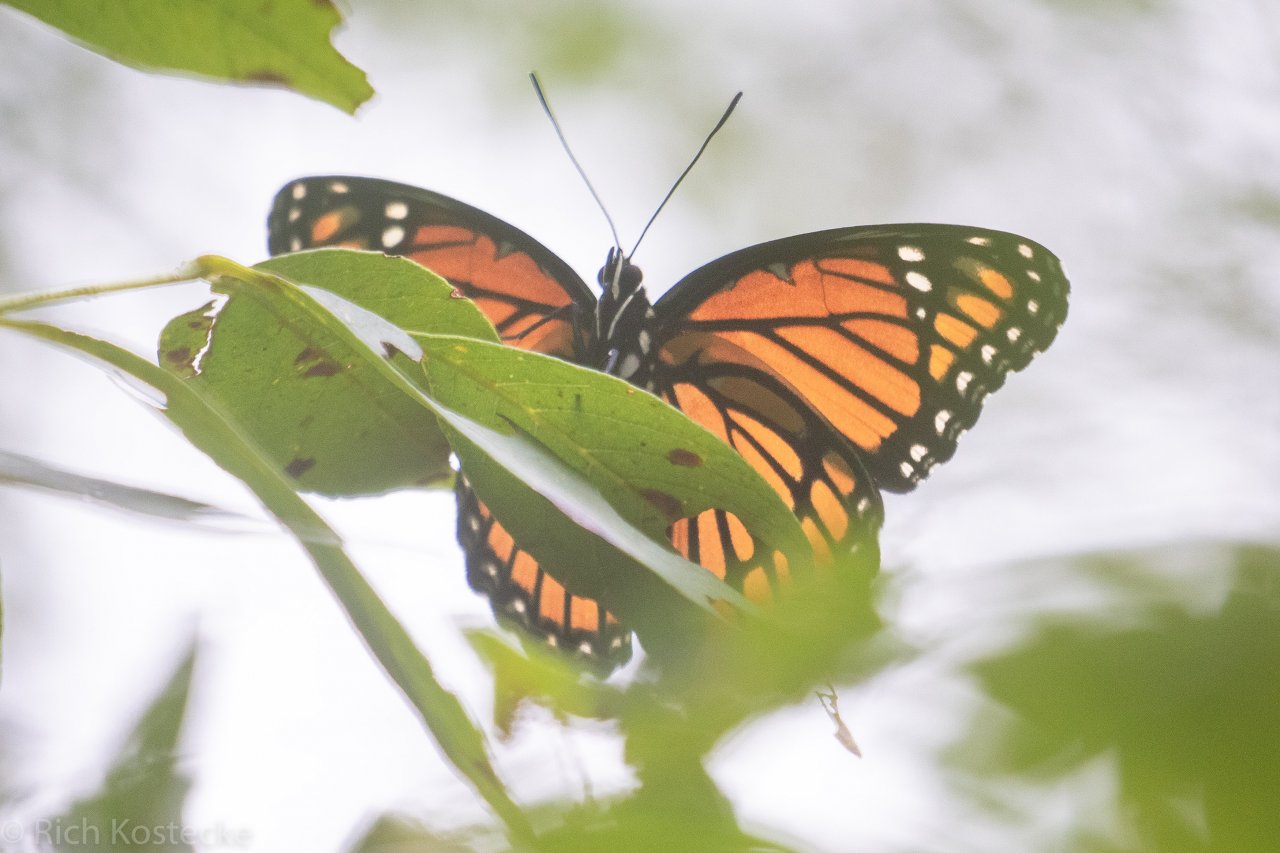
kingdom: Animalia
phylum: Arthropoda
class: Insecta
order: Lepidoptera
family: Nymphalidae
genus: Limenitis
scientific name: Limenitis archippus
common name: Viceroy
